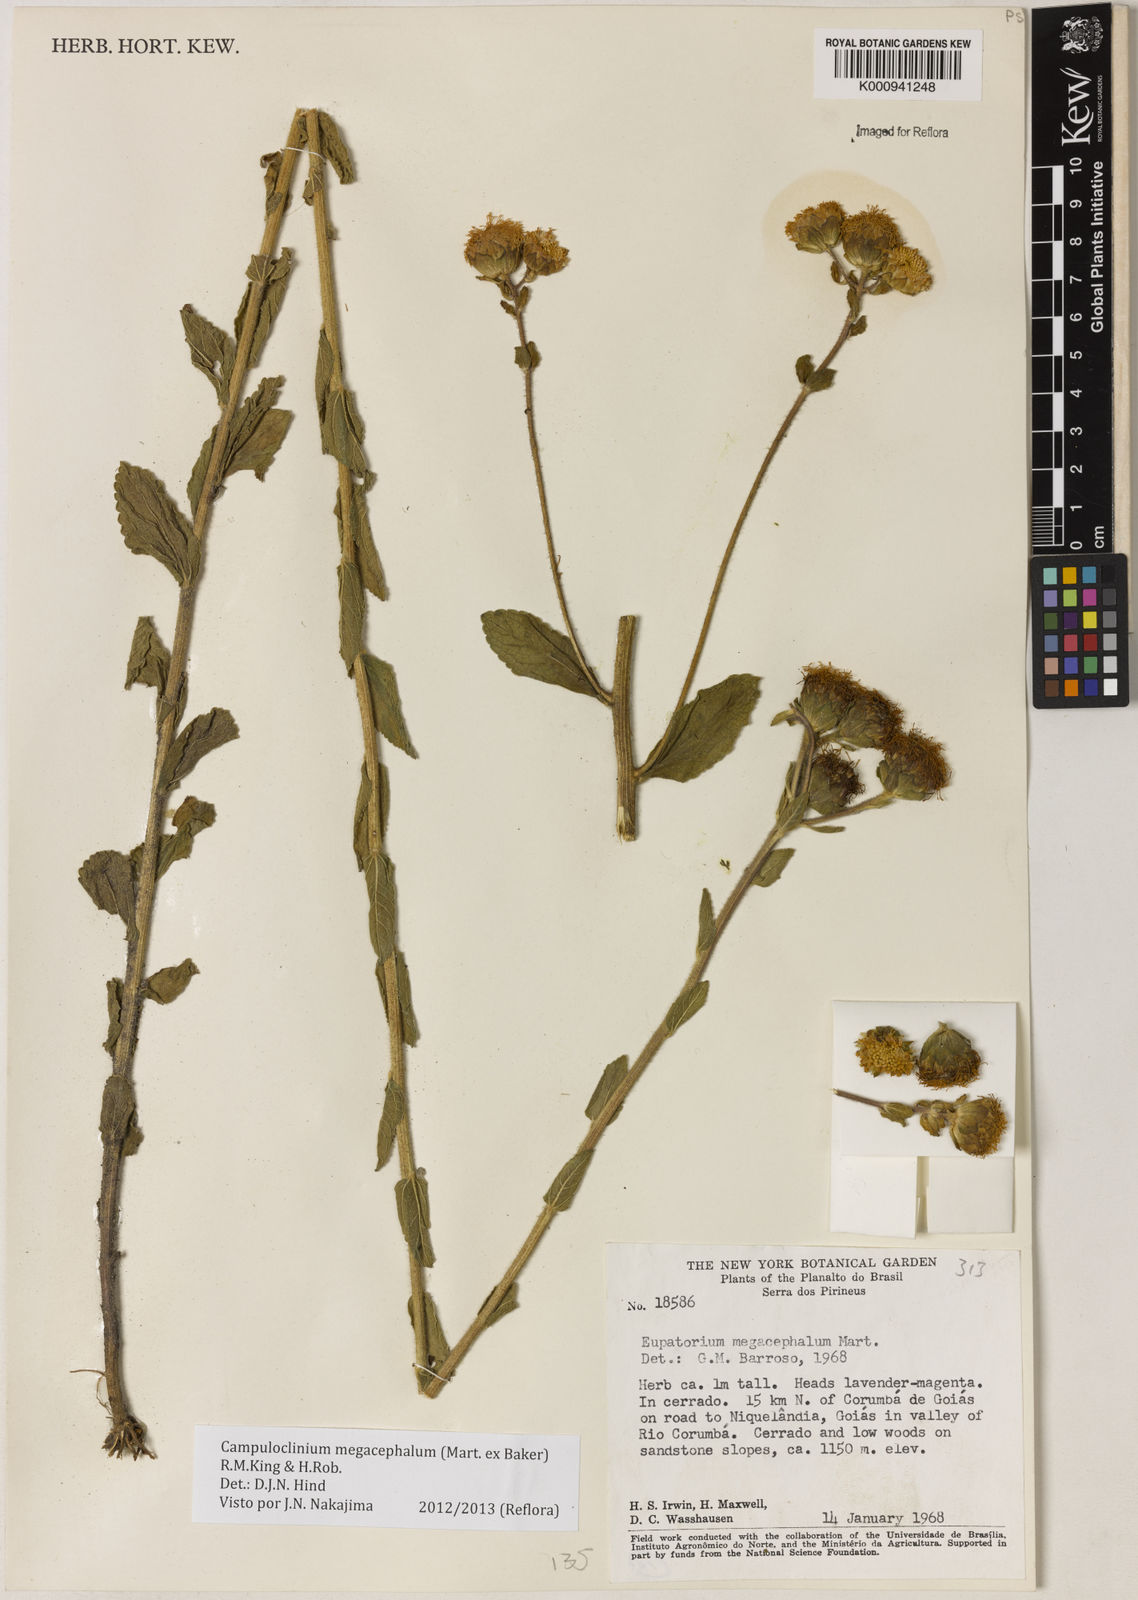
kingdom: Plantae
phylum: Tracheophyta
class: Magnoliopsida
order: Asterales
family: Asteraceae
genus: Campuloclinium
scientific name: Campuloclinium megacephalum
